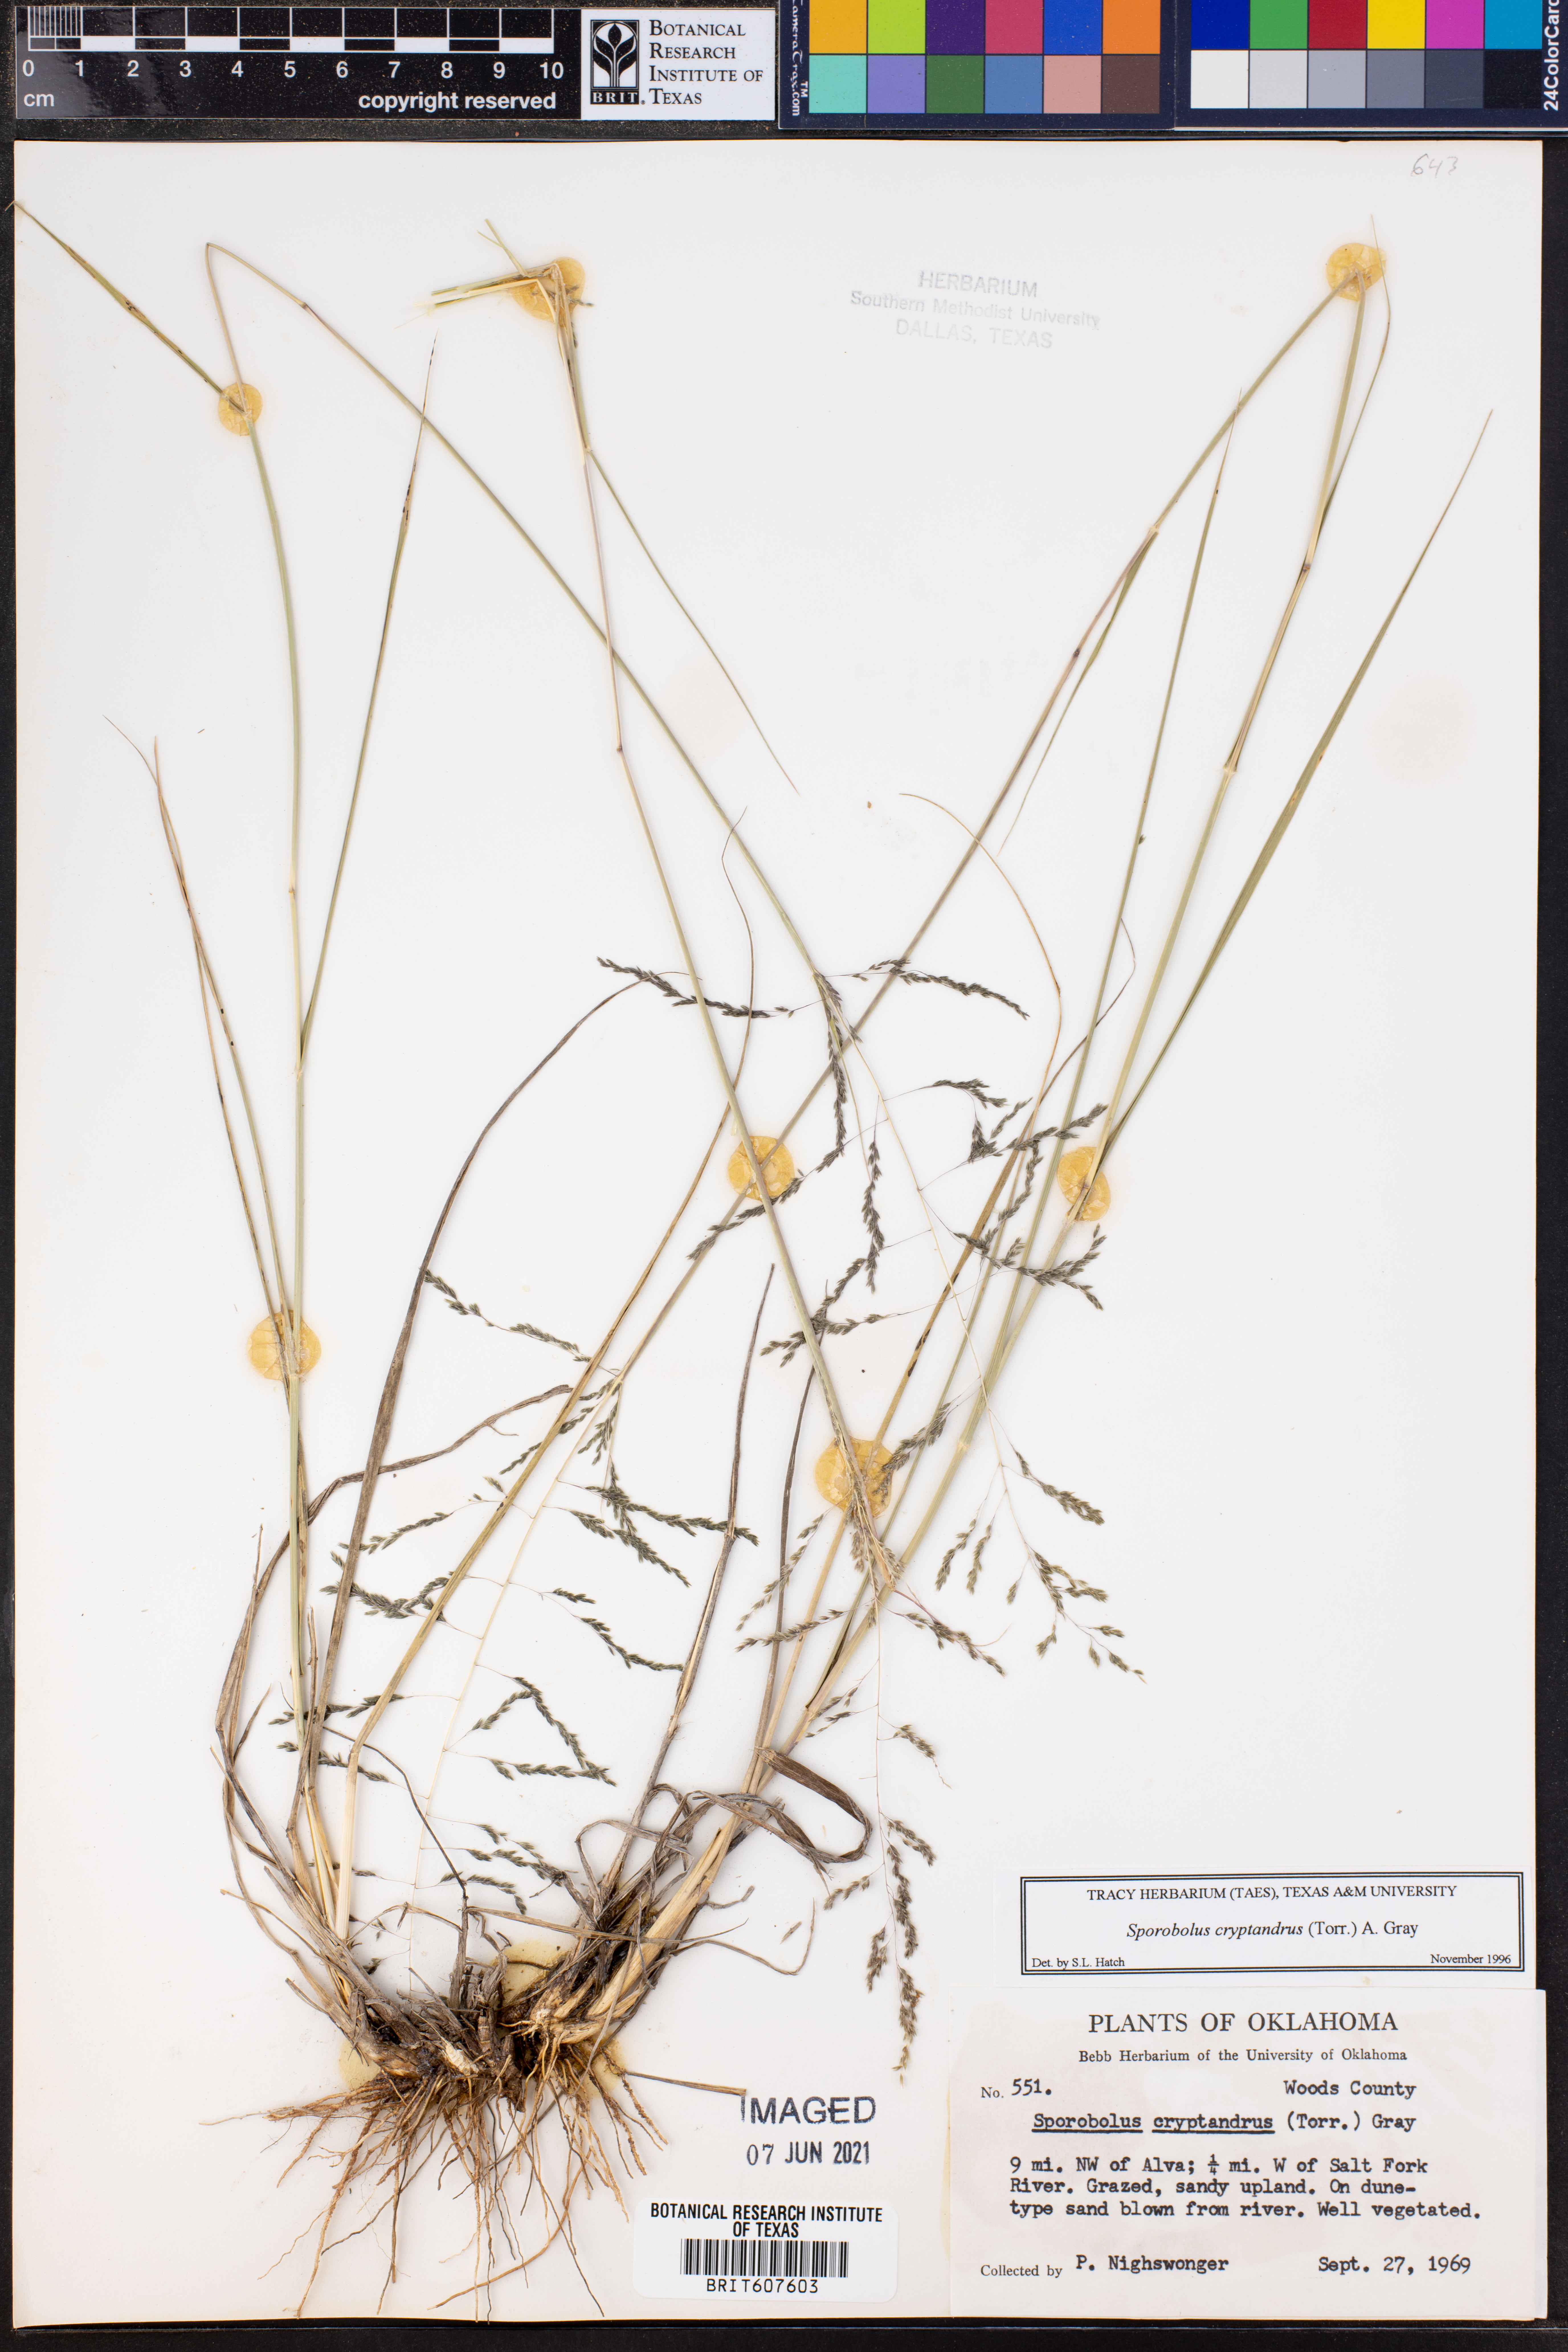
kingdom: Plantae
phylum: Tracheophyta
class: Liliopsida
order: Poales
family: Poaceae
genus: Sporobolus
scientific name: Sporobolus cryptandrus
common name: Sand dropseed
